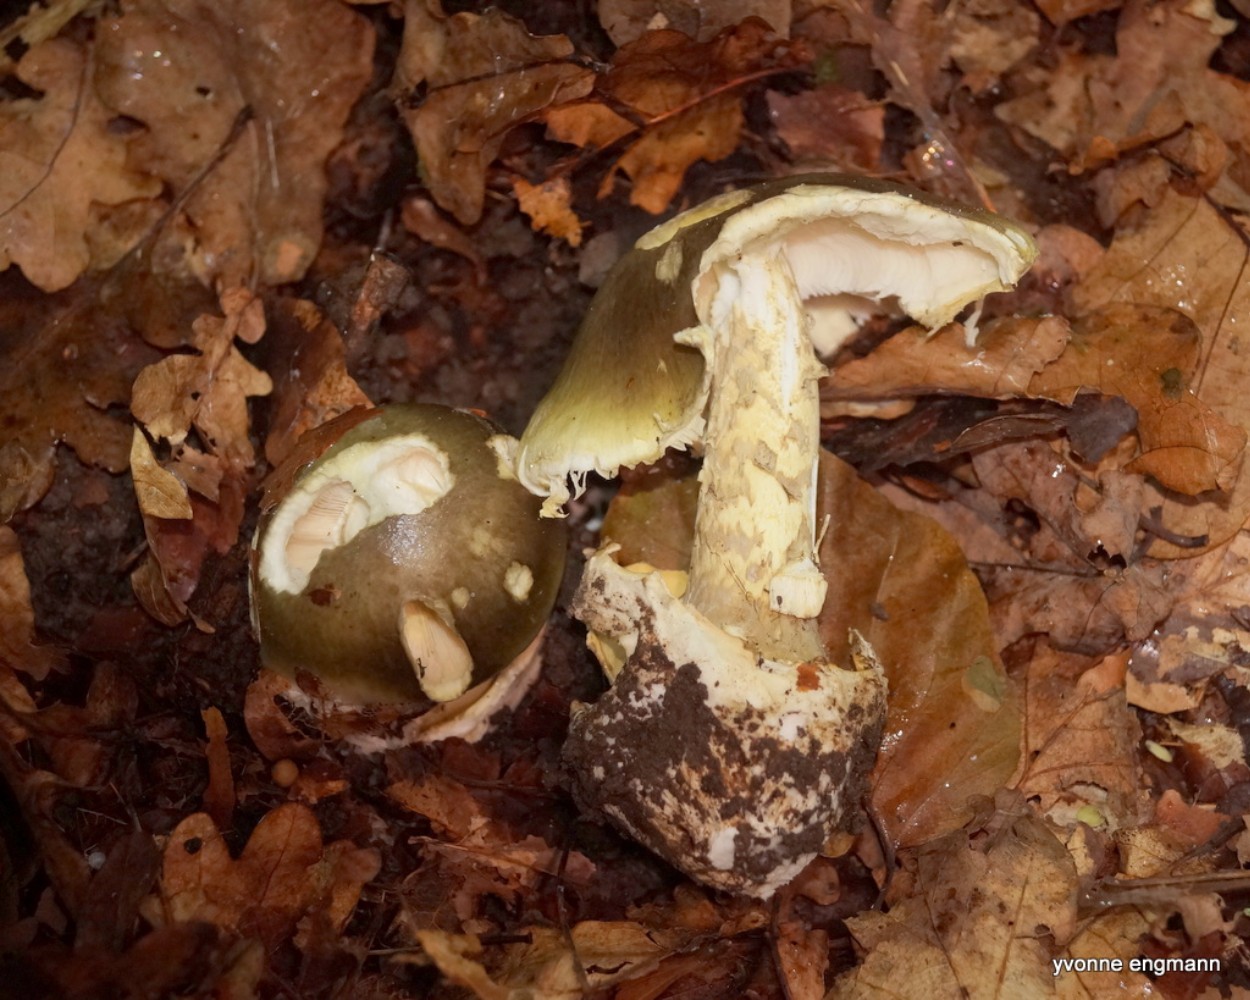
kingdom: Fungi
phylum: Basidiomycota
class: Agaricomycetes
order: Agaricales
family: Amanitaceae
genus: Amanita
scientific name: Amanita phalloides
